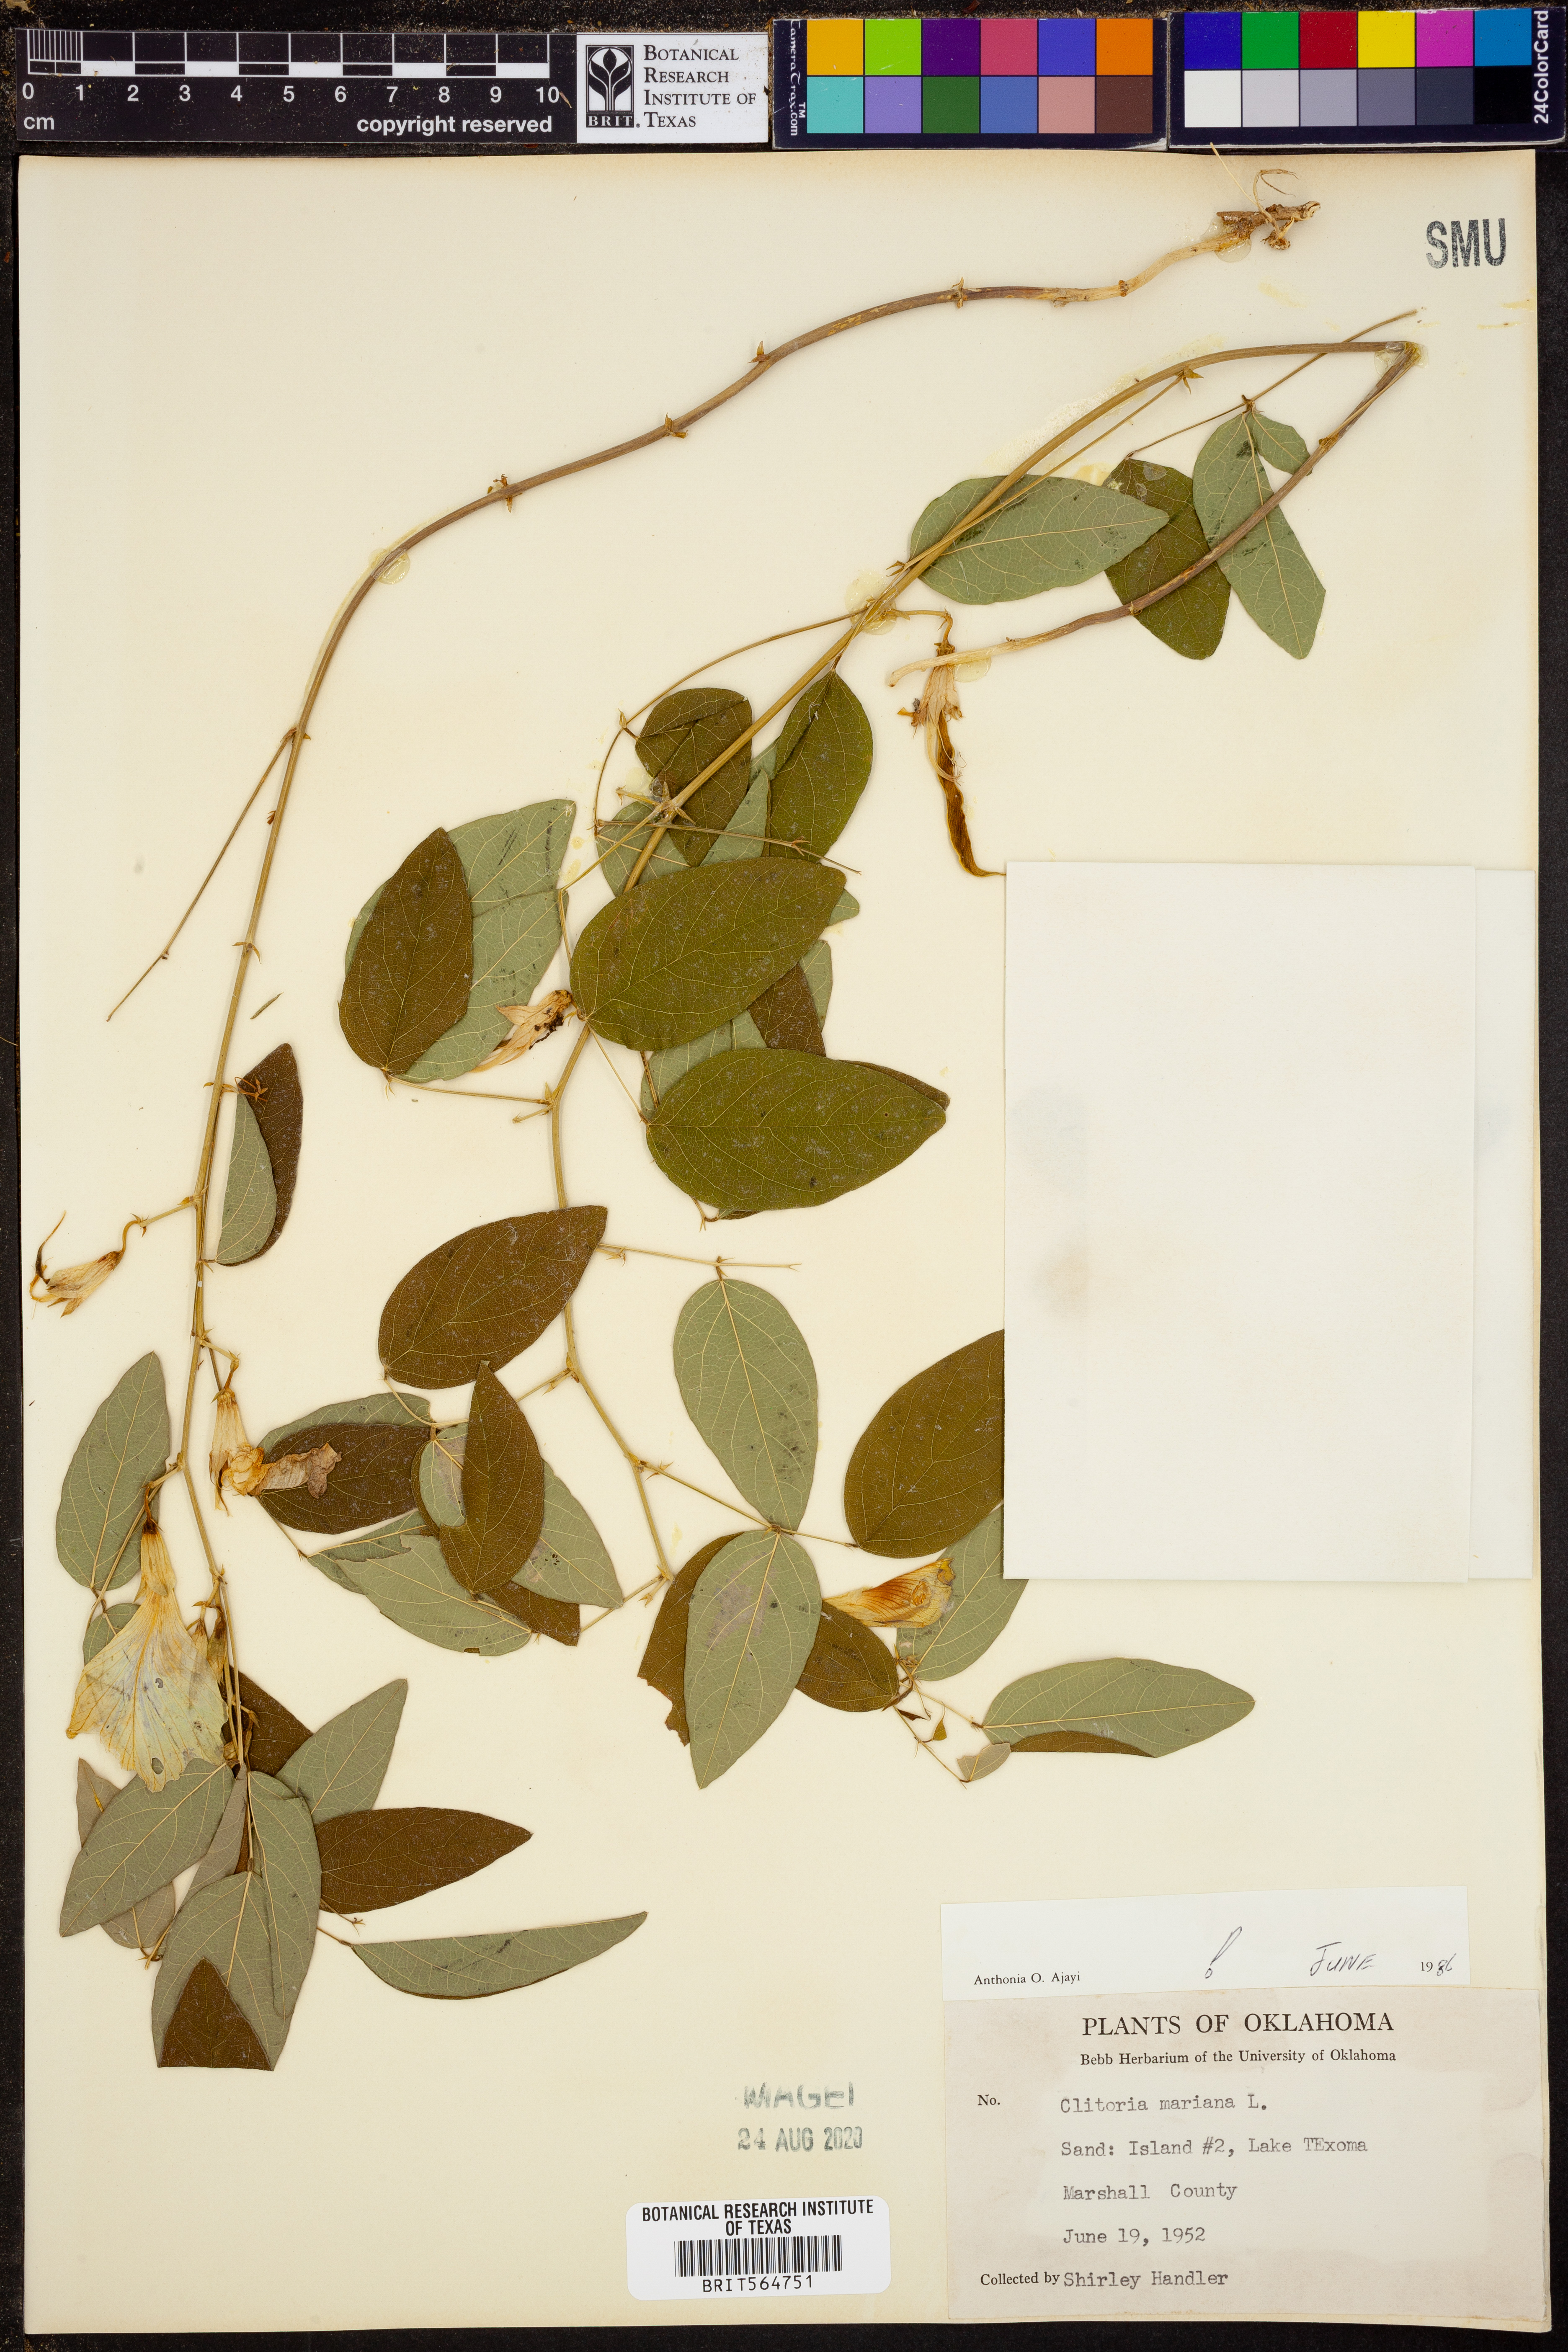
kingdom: Plantae
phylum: Tracheophyta
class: Magnoliopsida
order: Fabales
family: Fabaceae
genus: Clitoria
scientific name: Clitoria mariana
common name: Butterfly-pea
